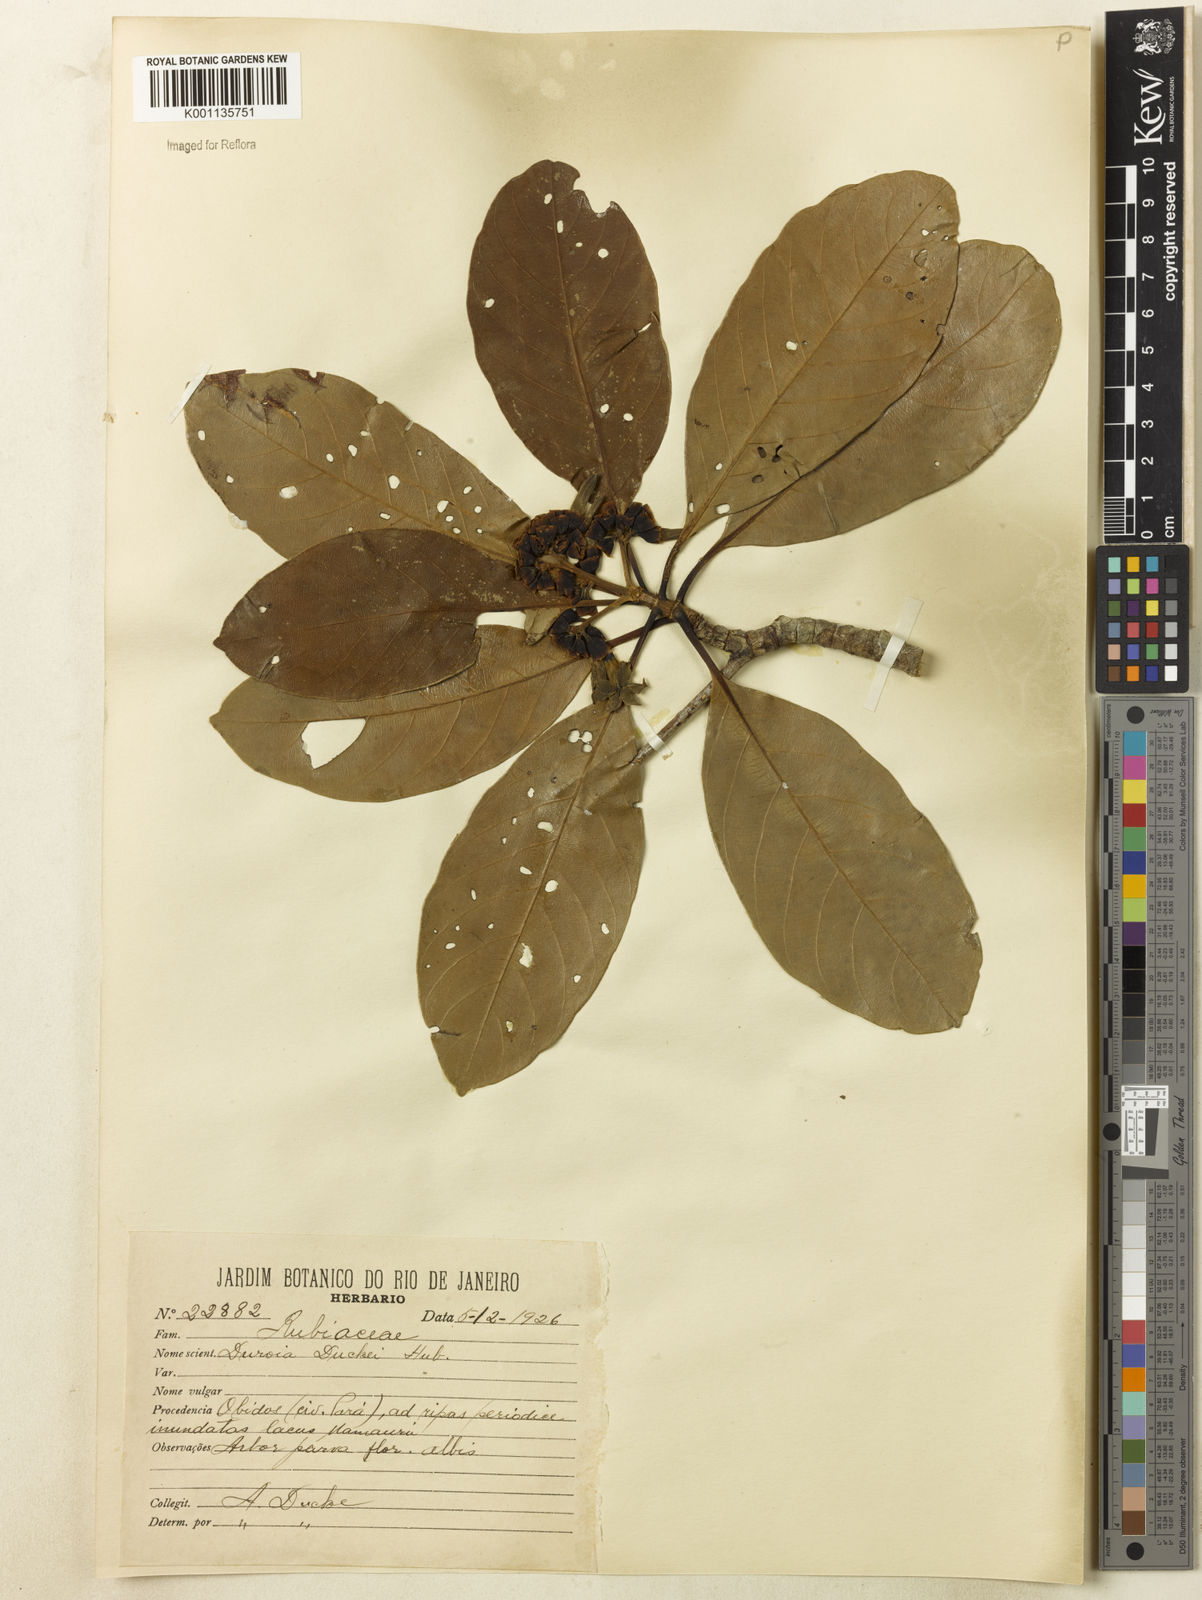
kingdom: Plantae
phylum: Tracheophyta
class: Magnoliopsida
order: Gentianales
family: Rubiaceae
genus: Duroia
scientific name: Duroia duckei
